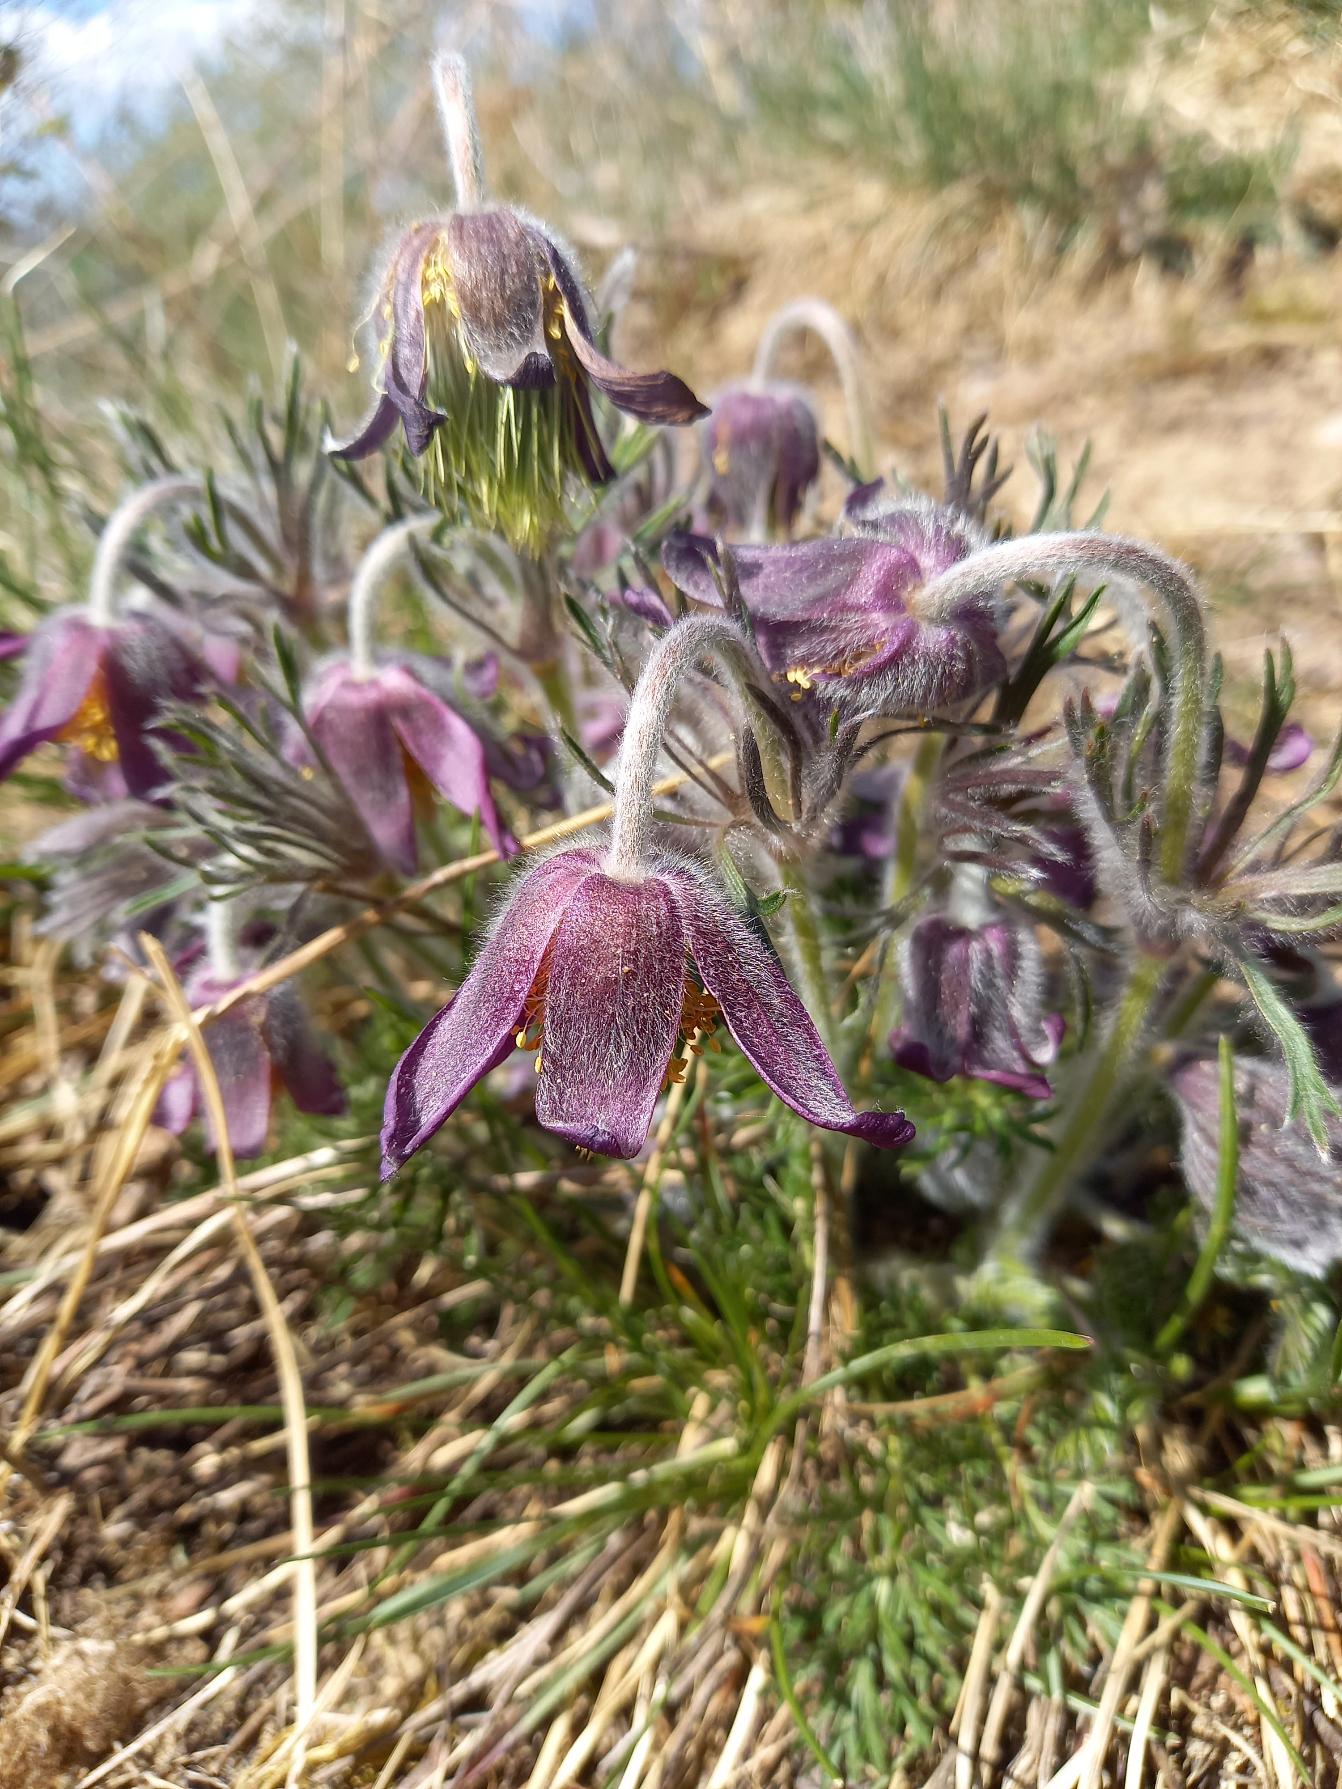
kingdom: Plantae
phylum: Tracheophyta
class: Magnoliopsida
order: Ranunculales
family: Ranunculaceae
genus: Pulsatilla
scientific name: Pulsatilla pratensis
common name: Nikkende kobjælde
